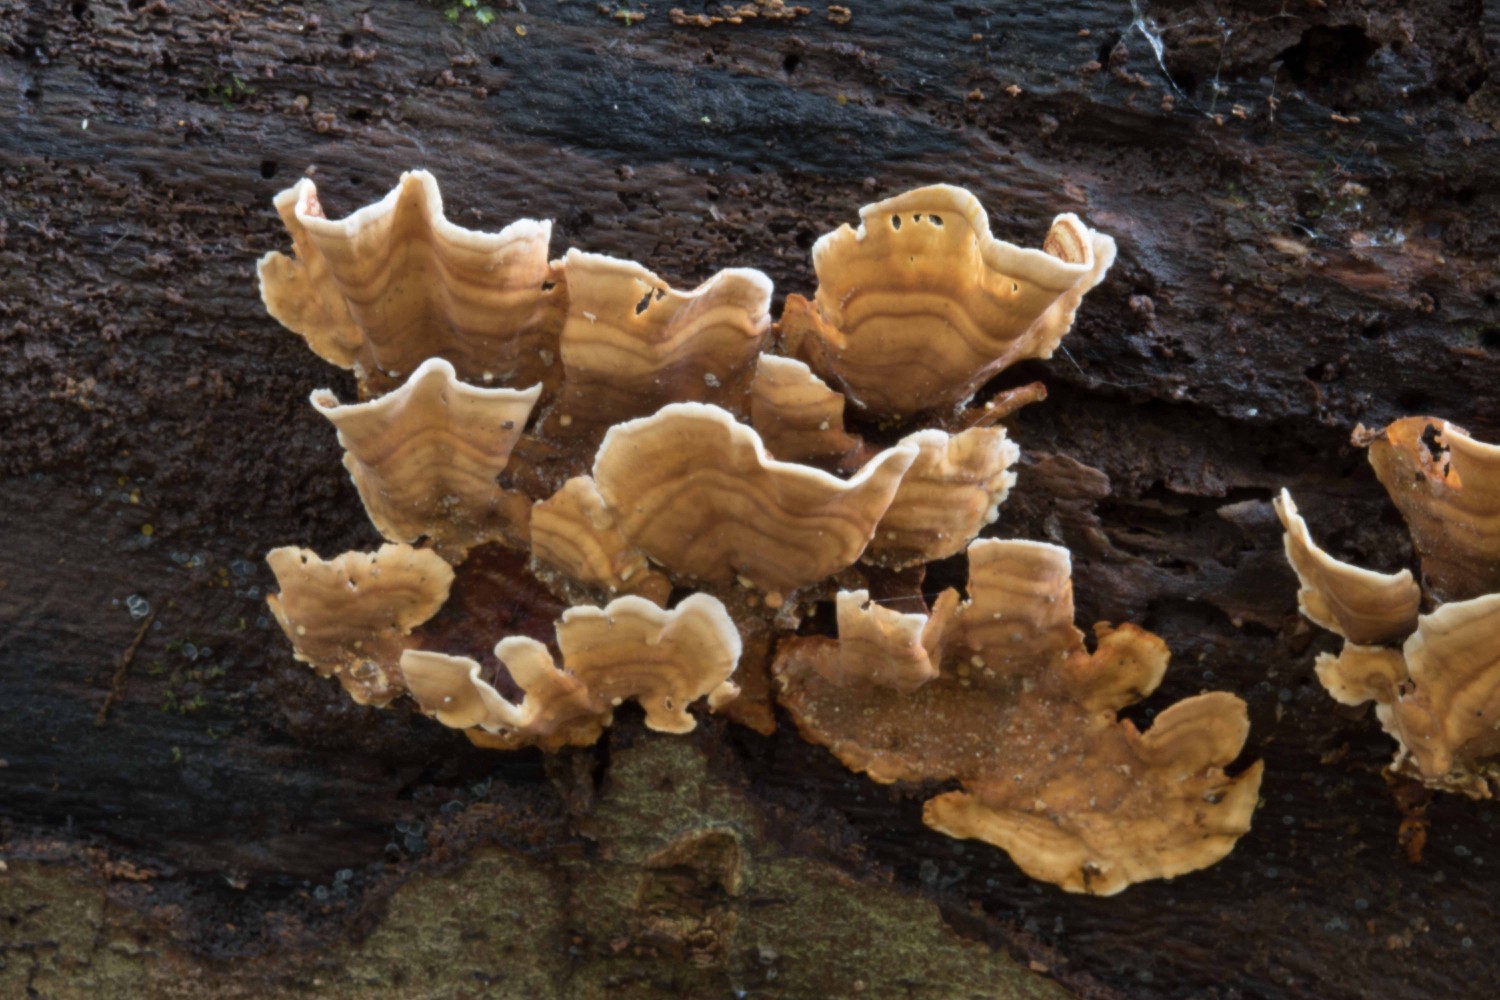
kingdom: Fungi
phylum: Basidiomycota
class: Agaricomycetes
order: Russulales
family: Stereaceae
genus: Stereum
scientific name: Stereum subtomentosum
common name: smuk lædersvamp
